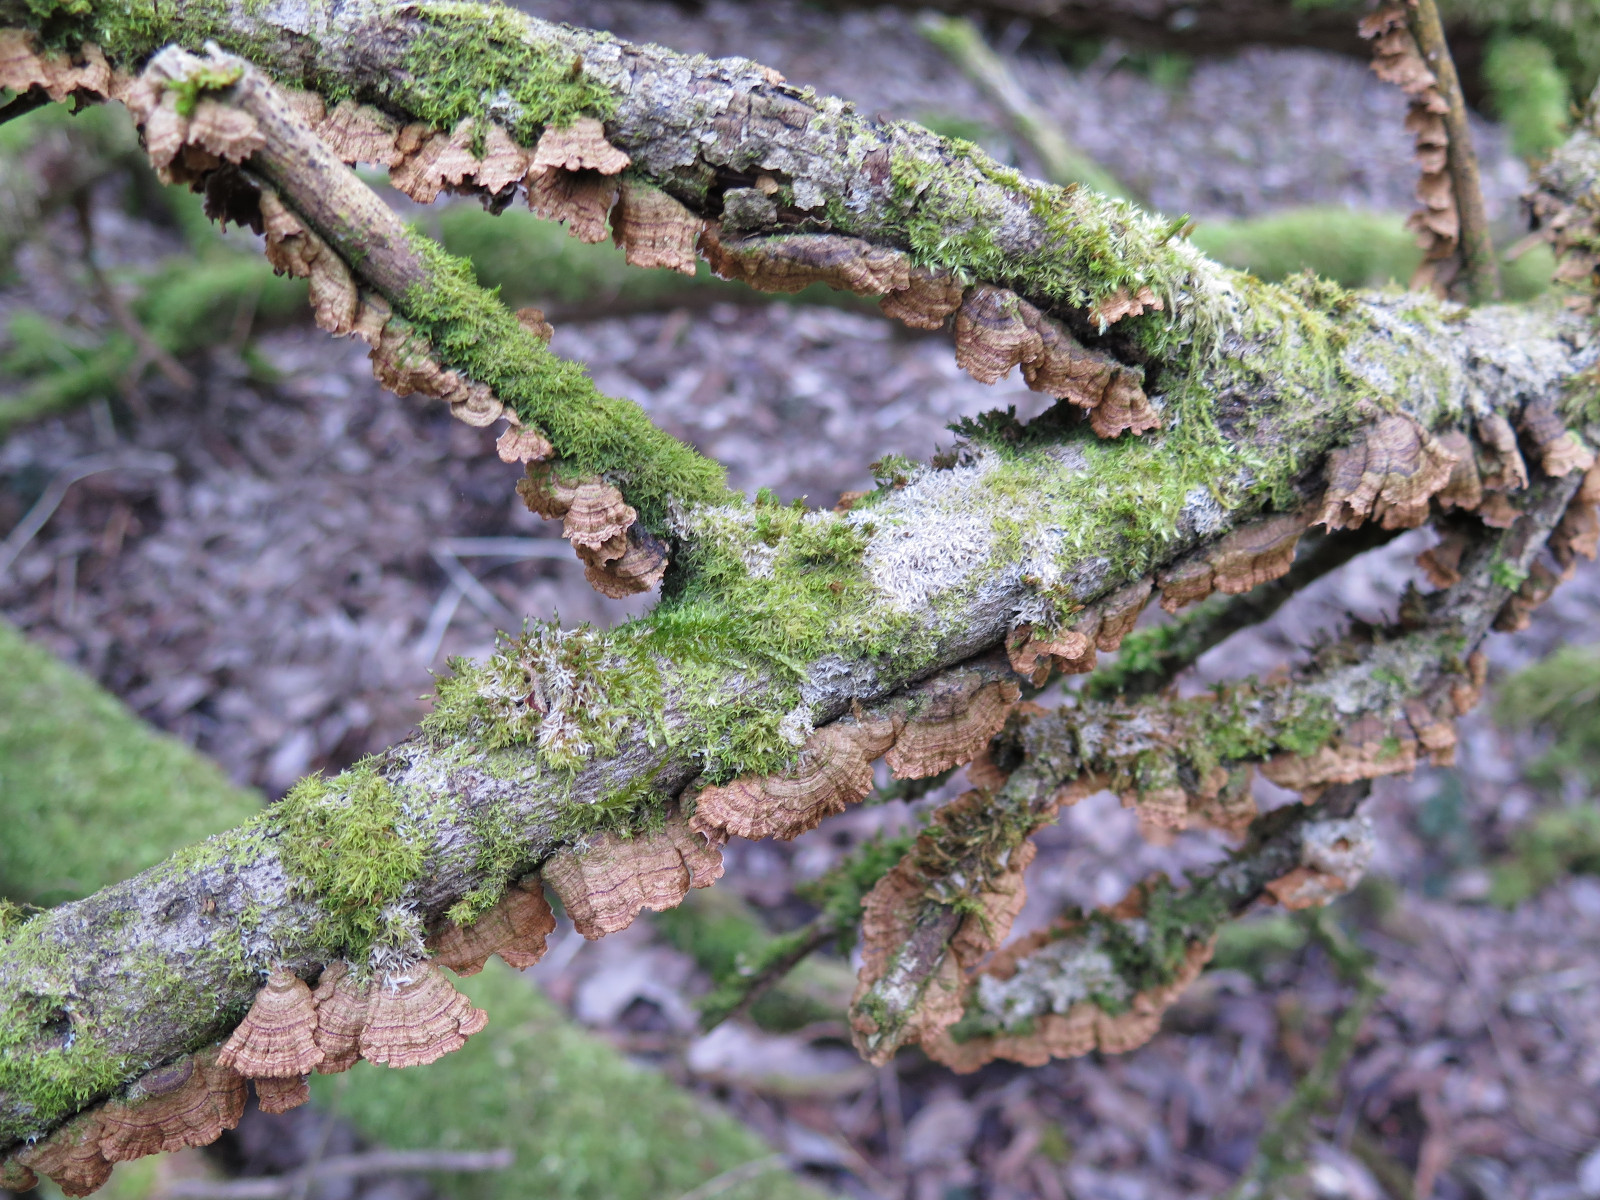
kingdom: Fungi
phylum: Basidiomycota
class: Agaricomycetes
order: Hymenochaetales
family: Hymenochaetaceae
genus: Hydnoporia
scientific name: Hydnoporia tabacina
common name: tobaksbrun ruslædersvamp
